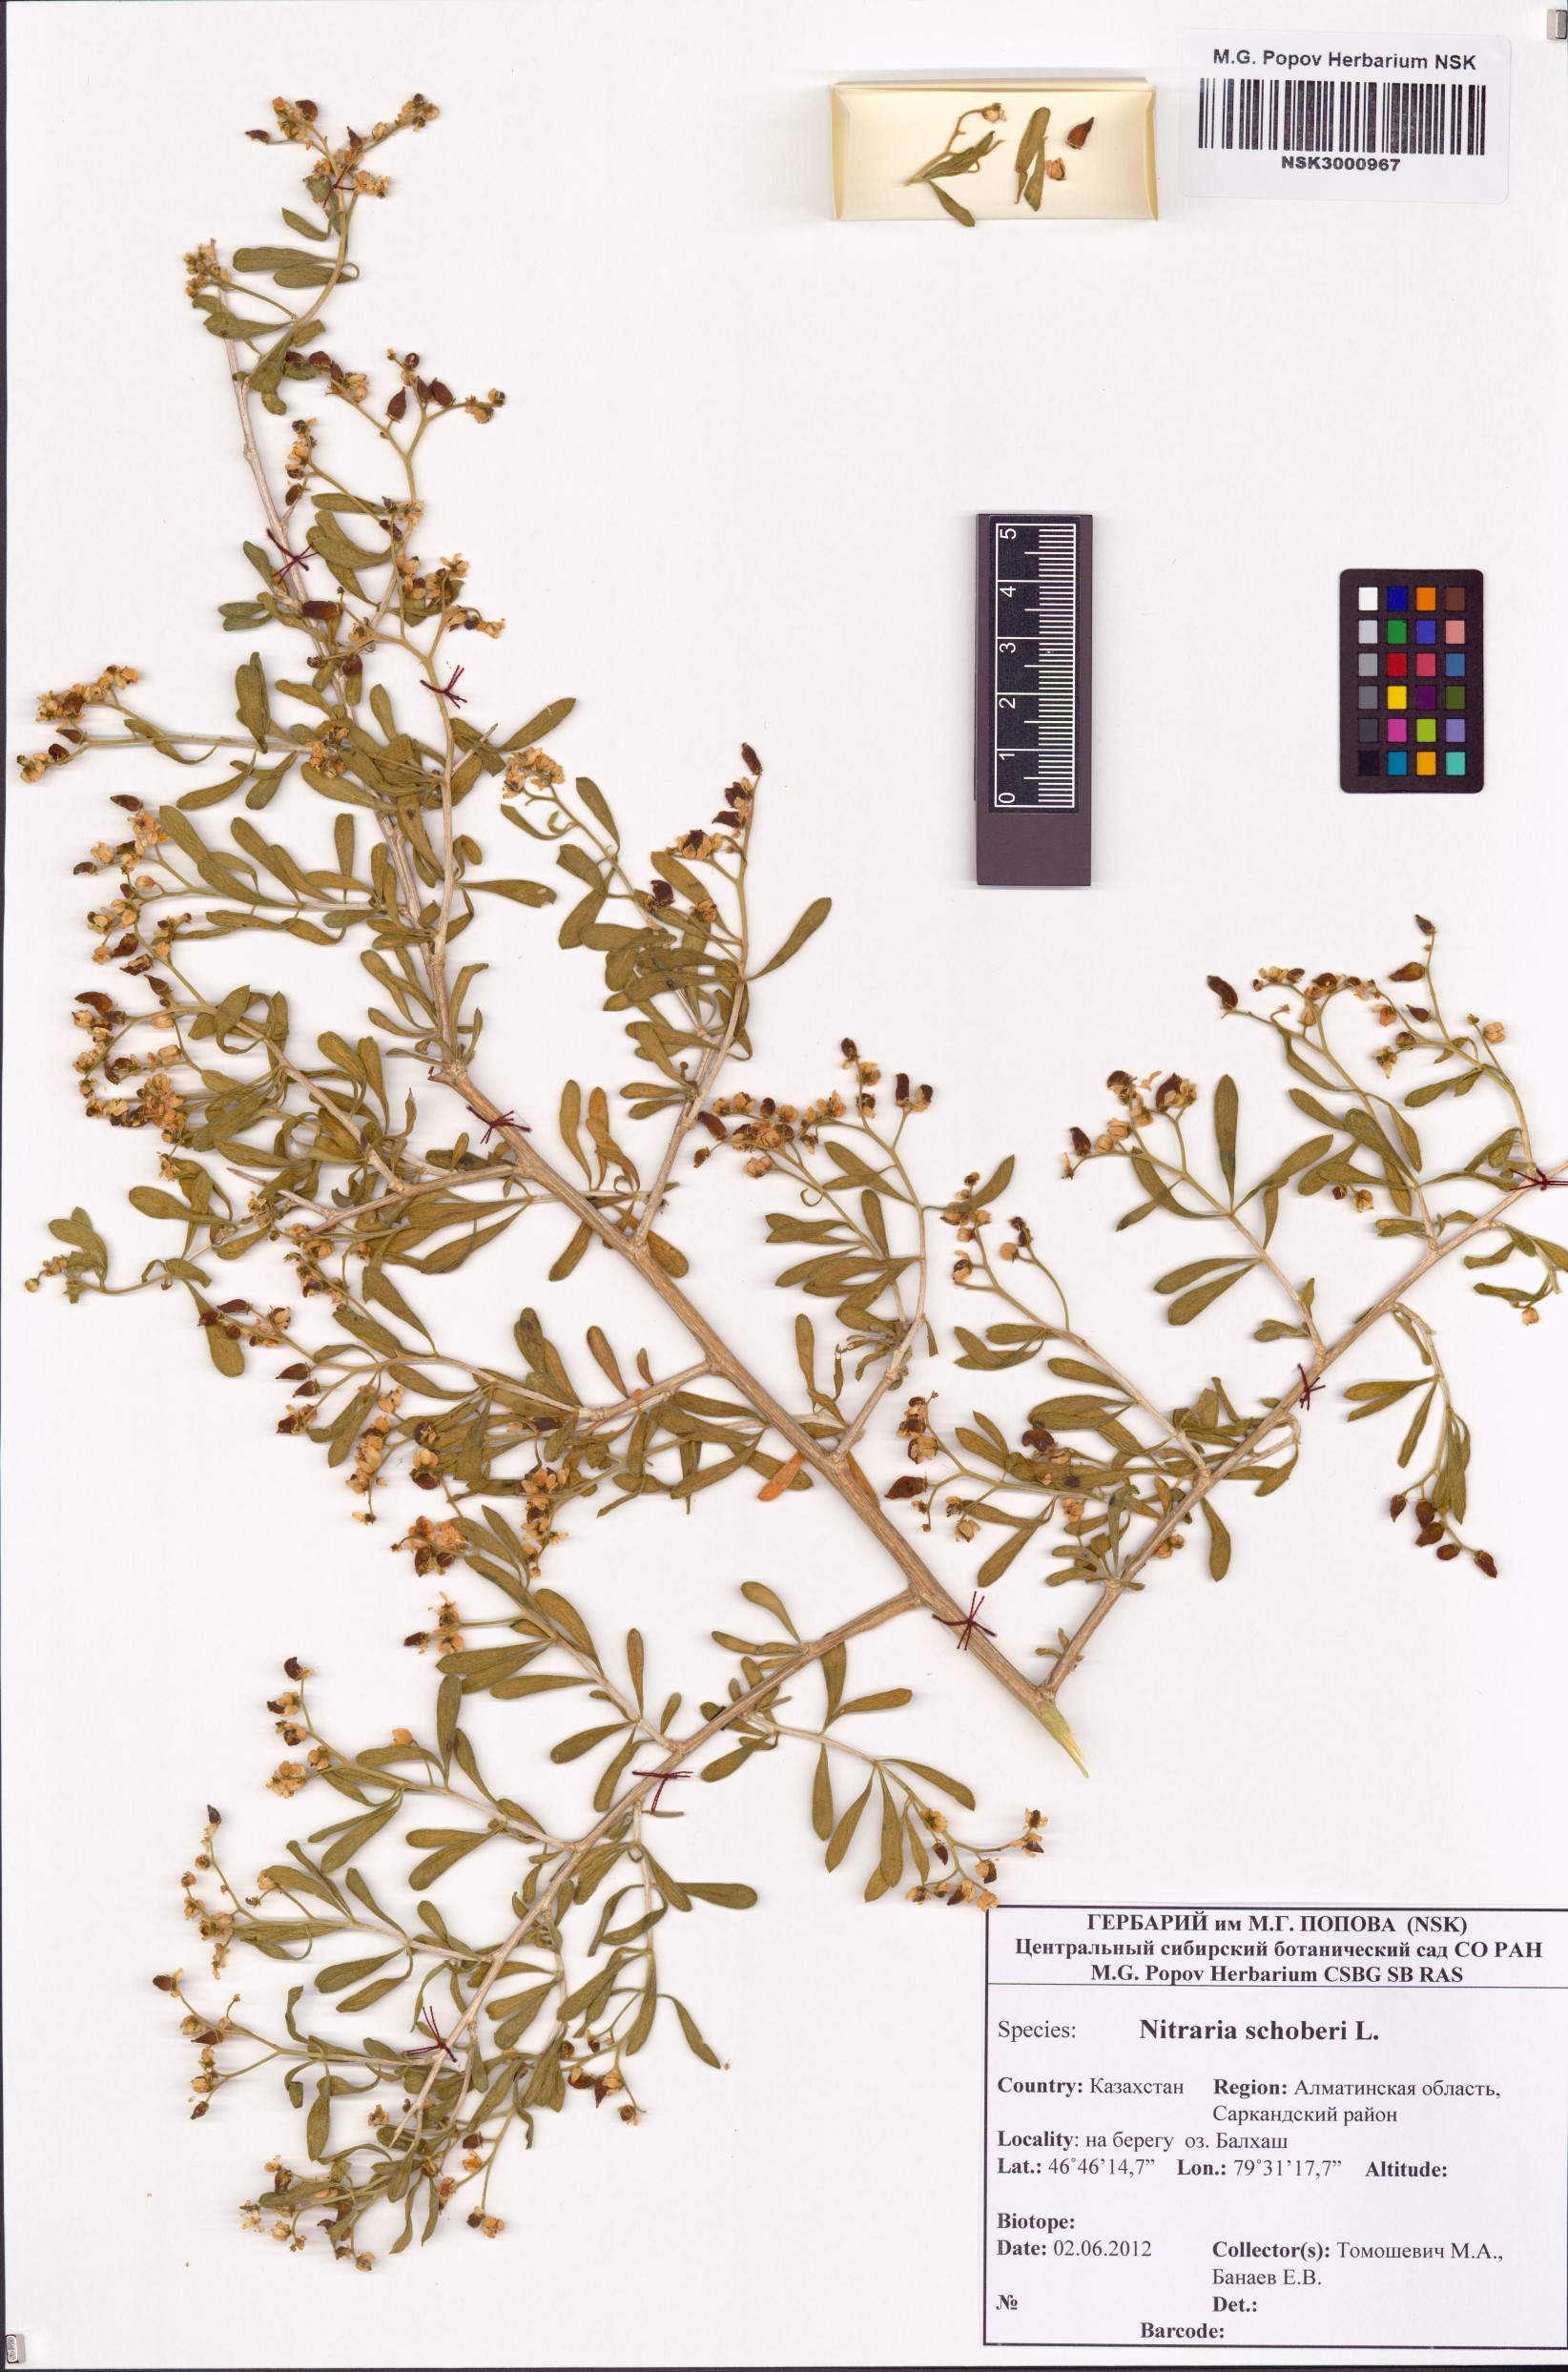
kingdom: Plantae
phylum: Tracheophyta
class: Magnoliopsida
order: Sapindales
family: Nitrariaceae
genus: Nitraria
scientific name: Nitraria schoberi
